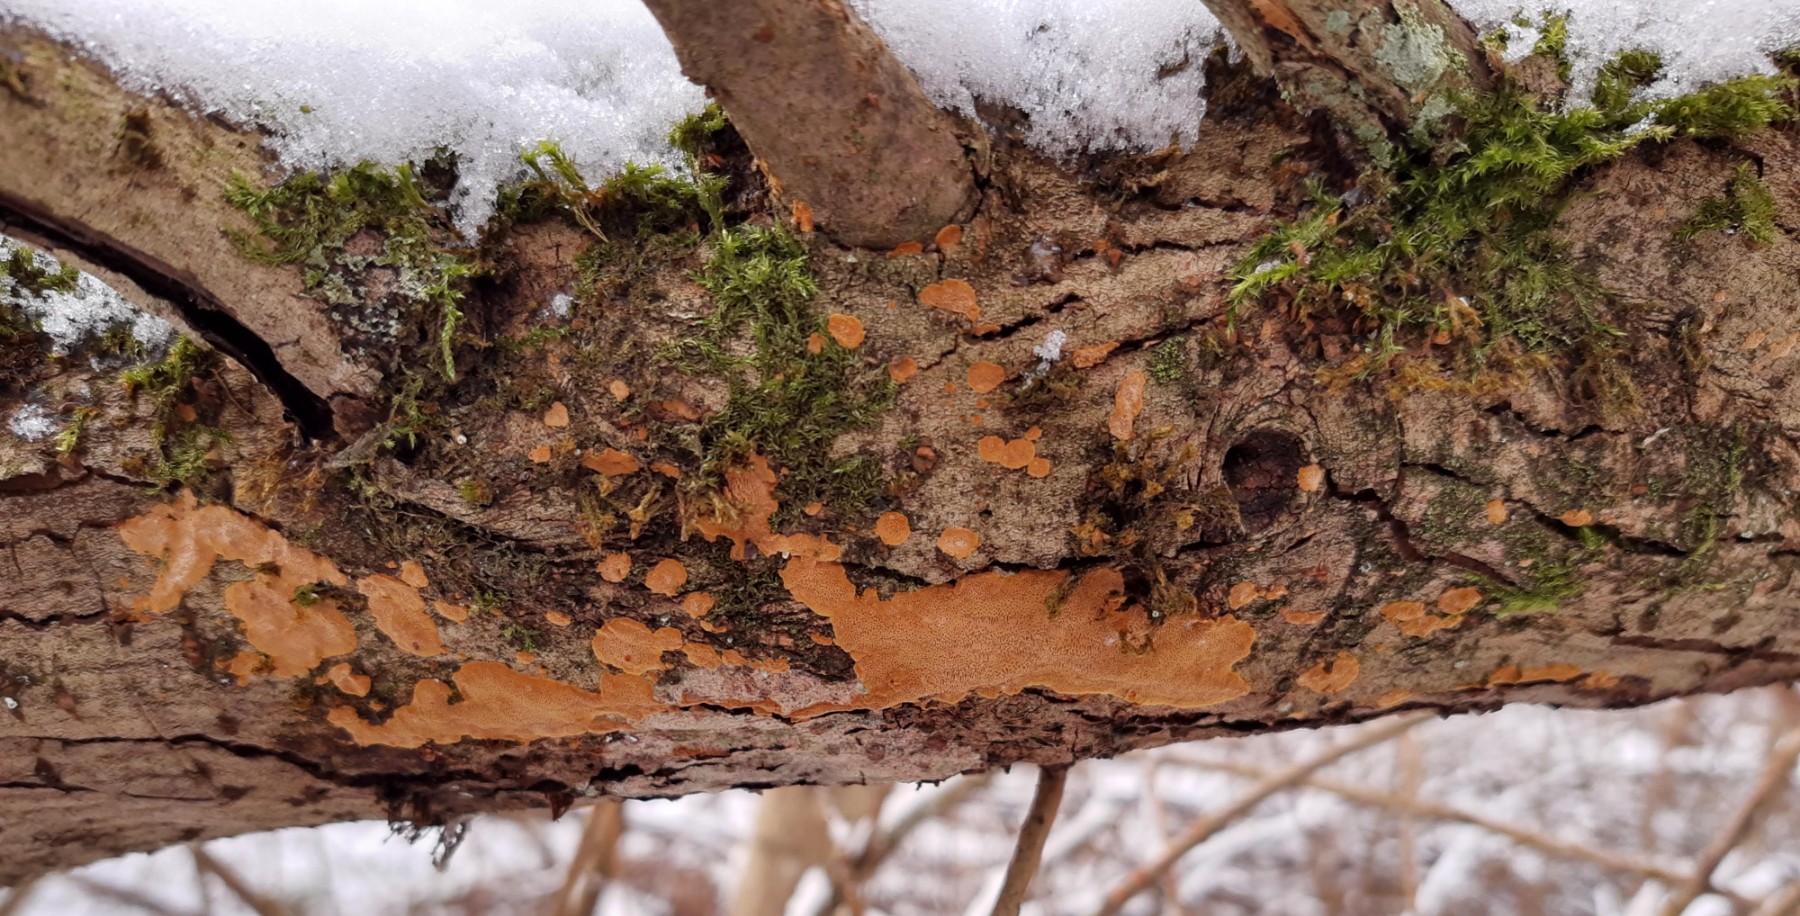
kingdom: Fungi
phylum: Basidiomycota
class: Agaricomycetes
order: Hymenochaetales
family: Hymenochaetaceae
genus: Phellinopsis
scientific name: Phellinopsis conchata
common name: pile-ildporesvamp
